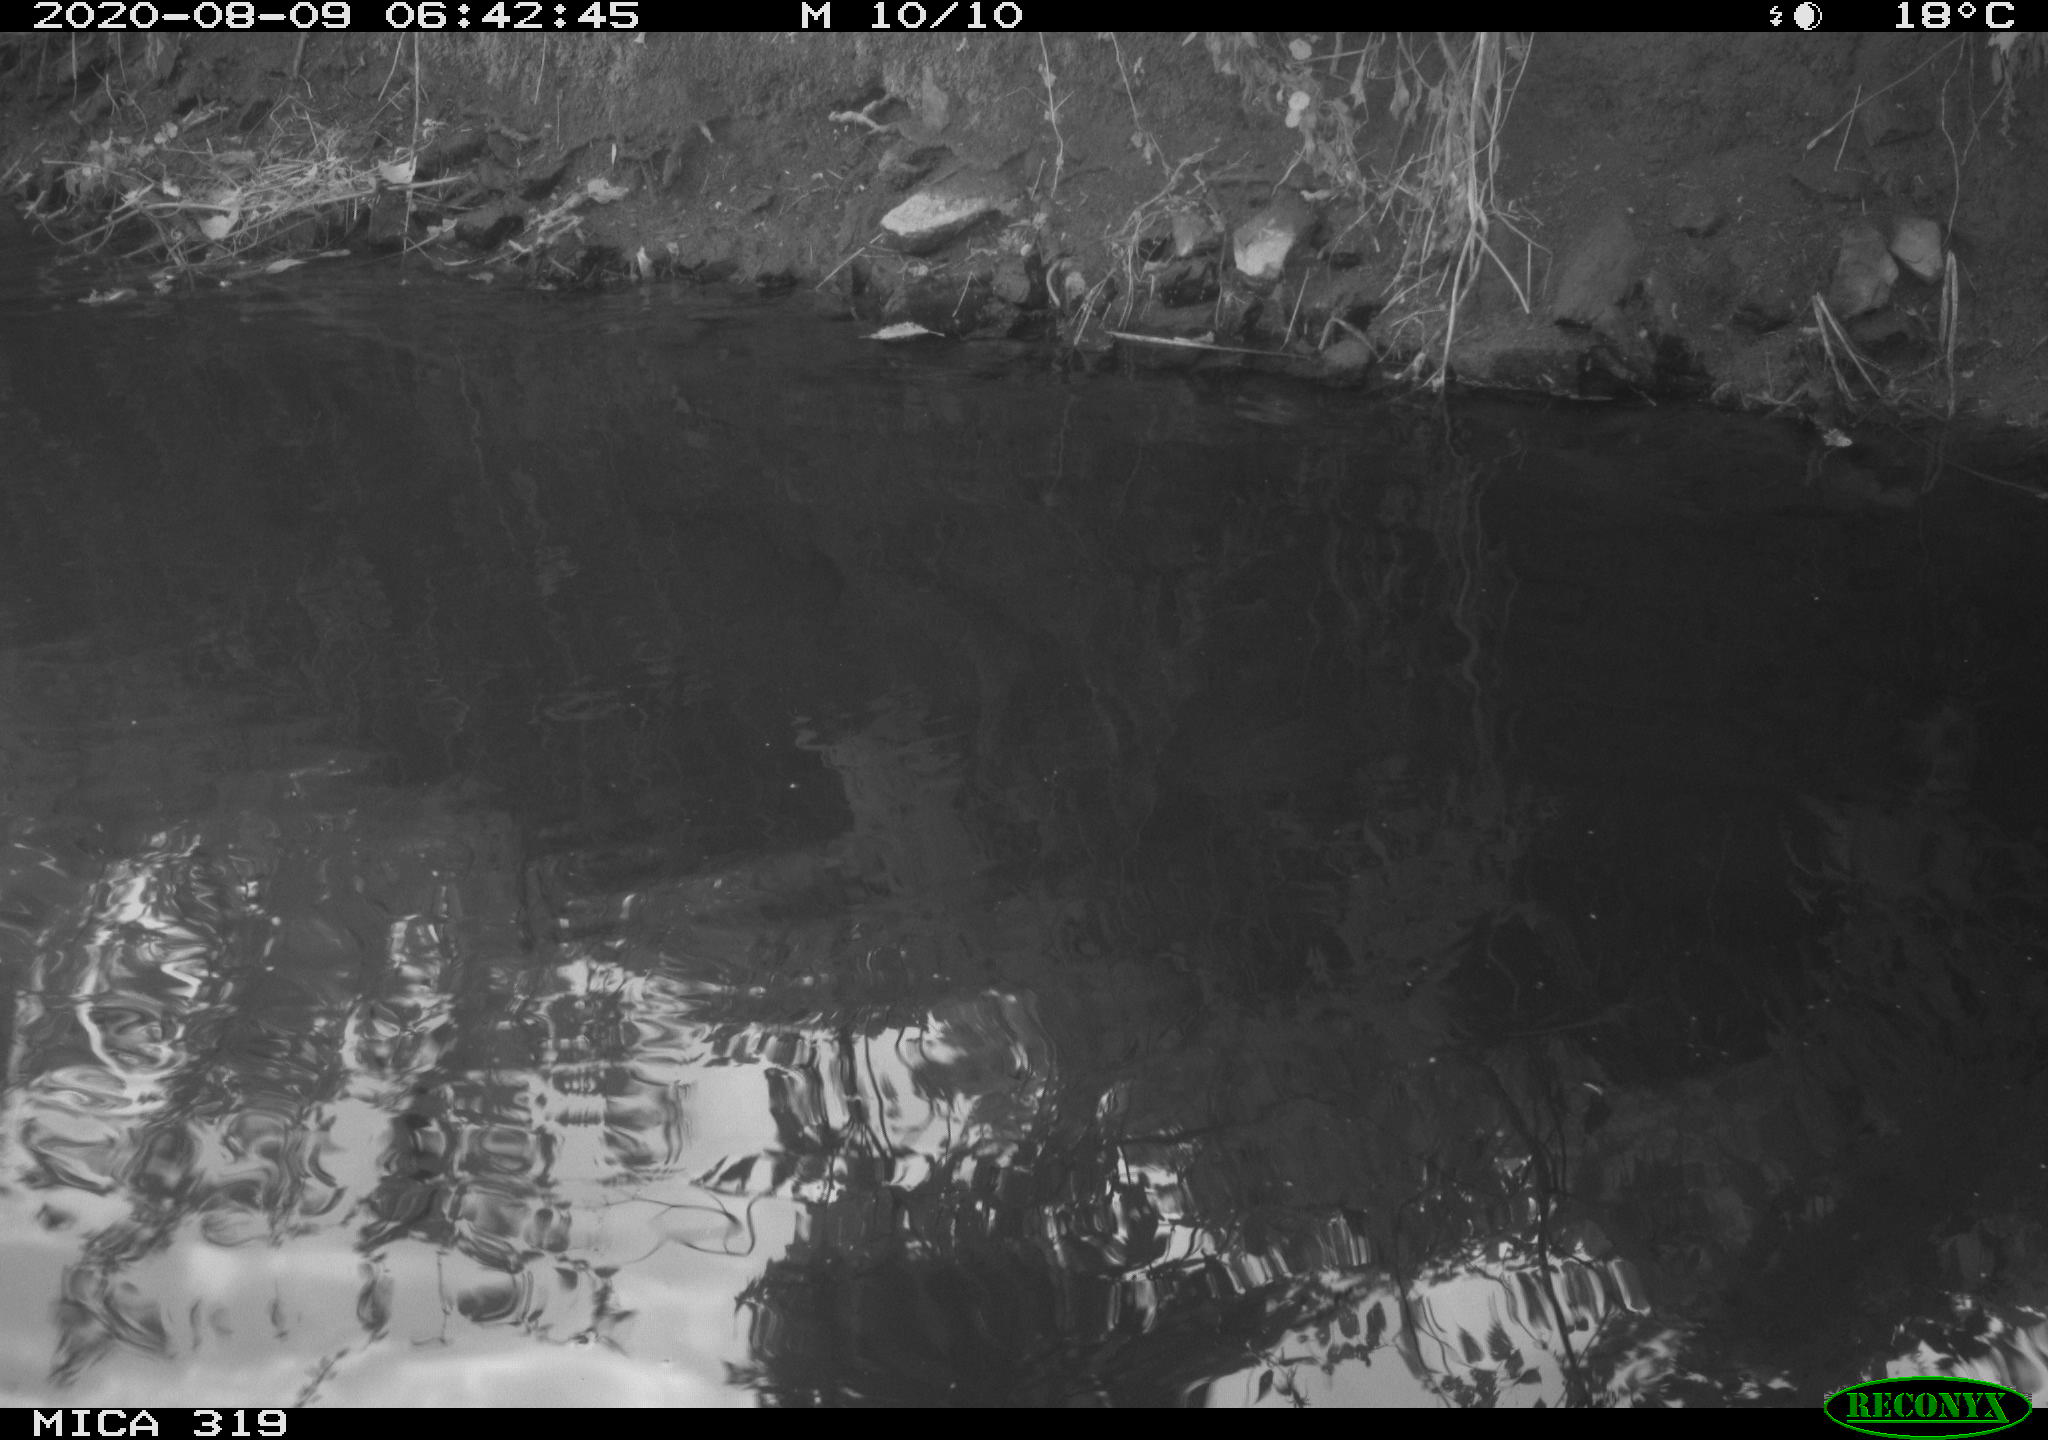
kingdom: Animalia
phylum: Chordata
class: Aves
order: Anseriformes
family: Anatidae
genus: Anas
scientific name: Anas platyrhynchos
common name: Mallard
